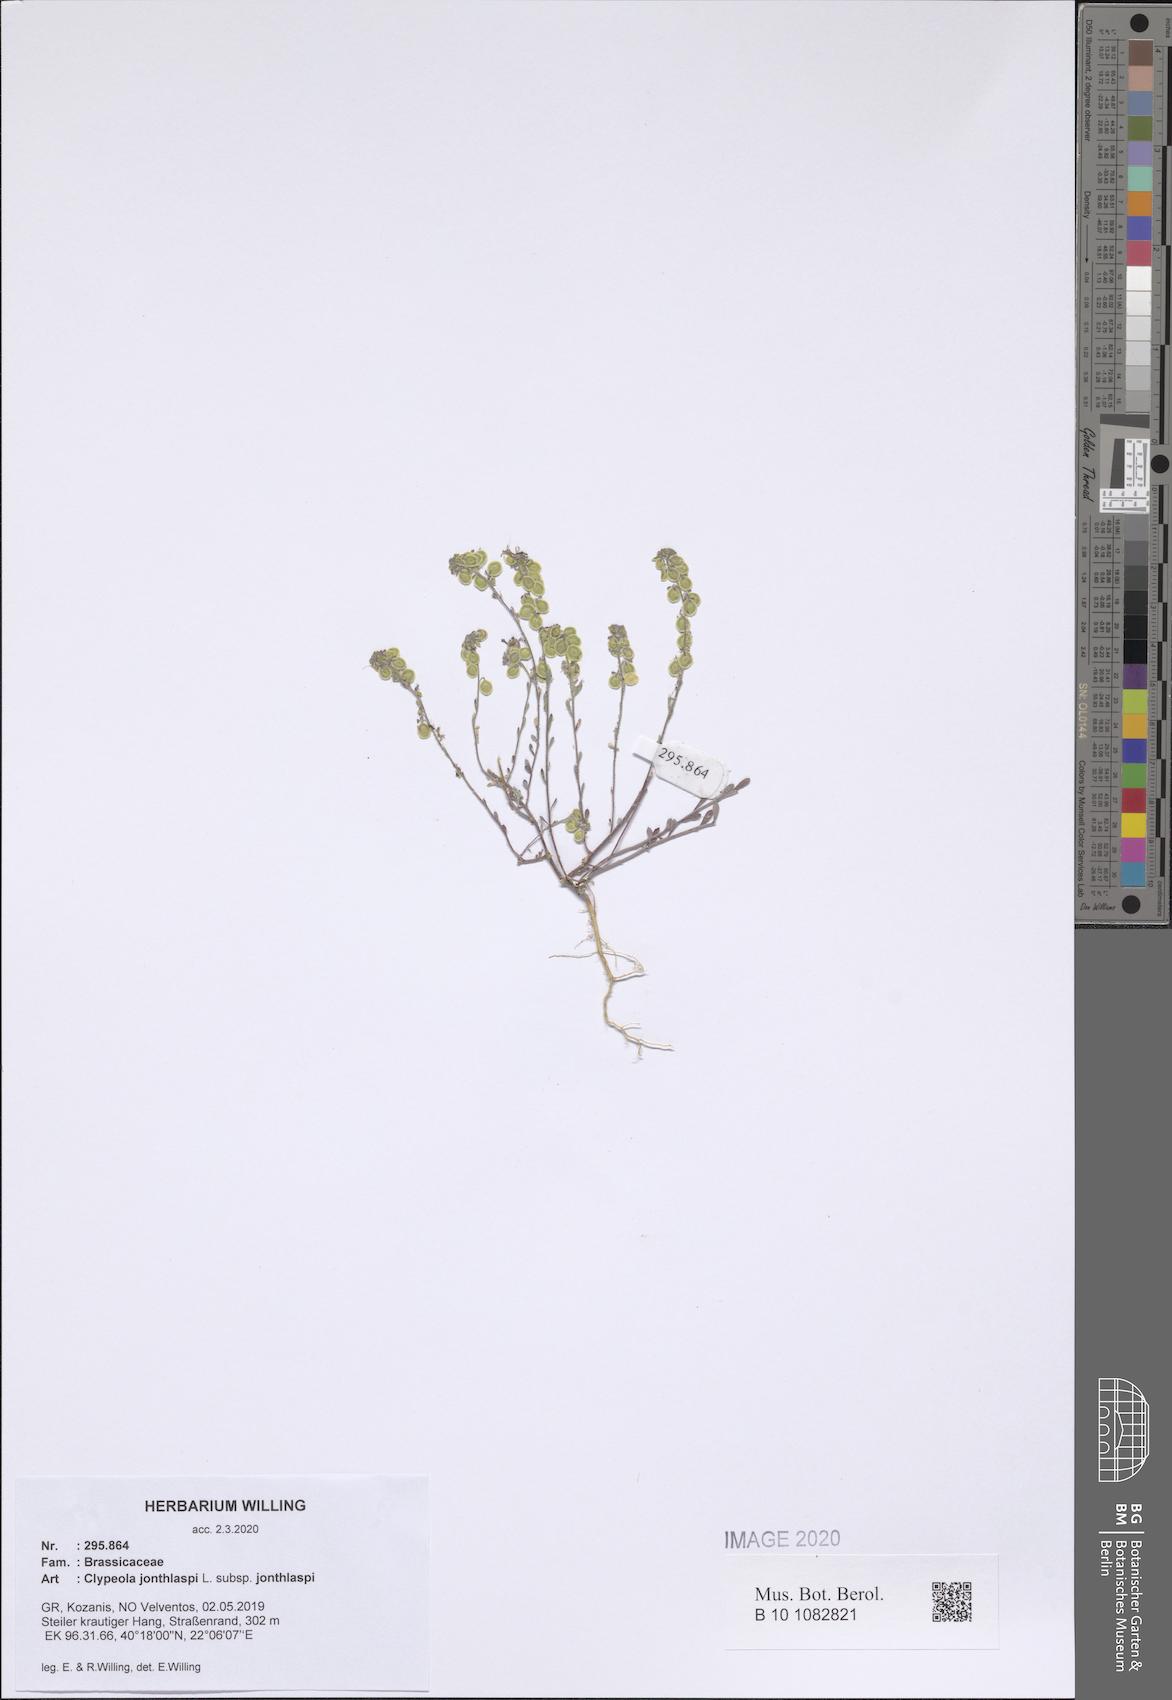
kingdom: Plantae
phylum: Tracheophyta
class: Magnoliopsida
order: Brassicales
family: Brassicaceae
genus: Clypeola
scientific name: Clypeola jonthlaspi
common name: Disk cress
